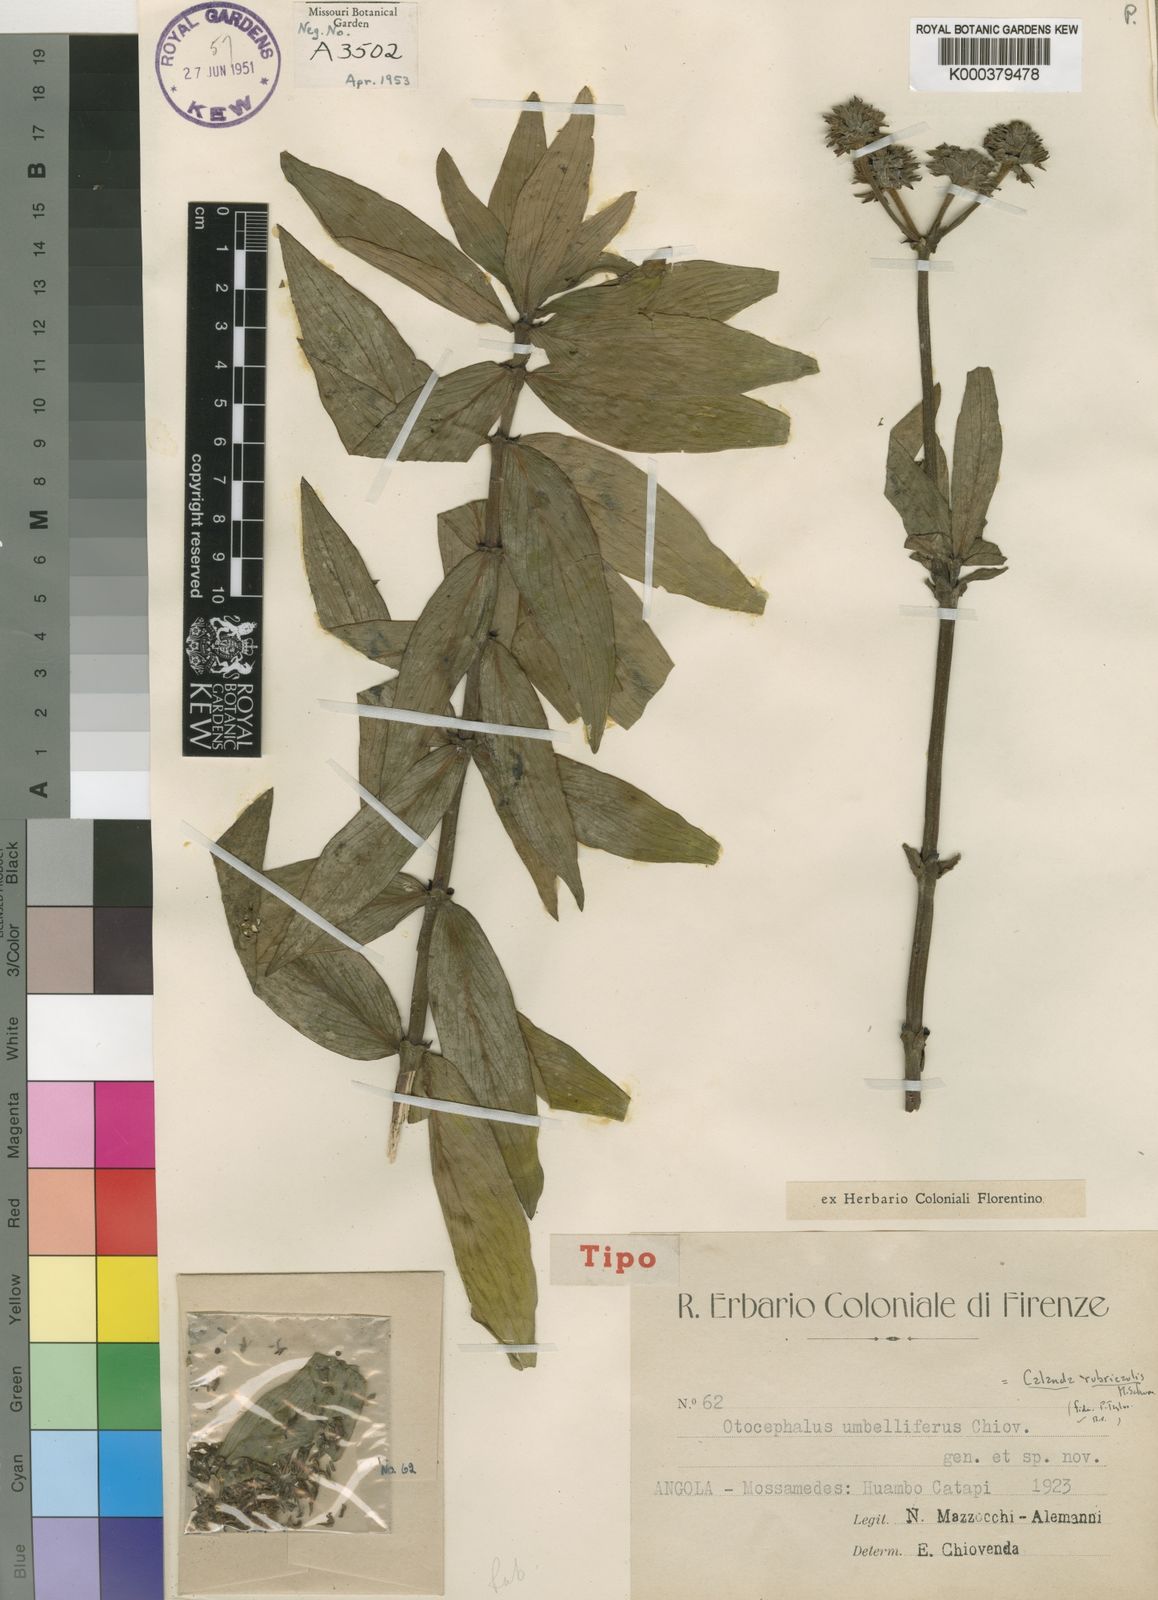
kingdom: Plantae
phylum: Tracheophyta
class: Magnoliopsida
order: Gentianales
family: Rubiaceae
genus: Pentanisia
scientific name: Pentanisia rubricaulis
